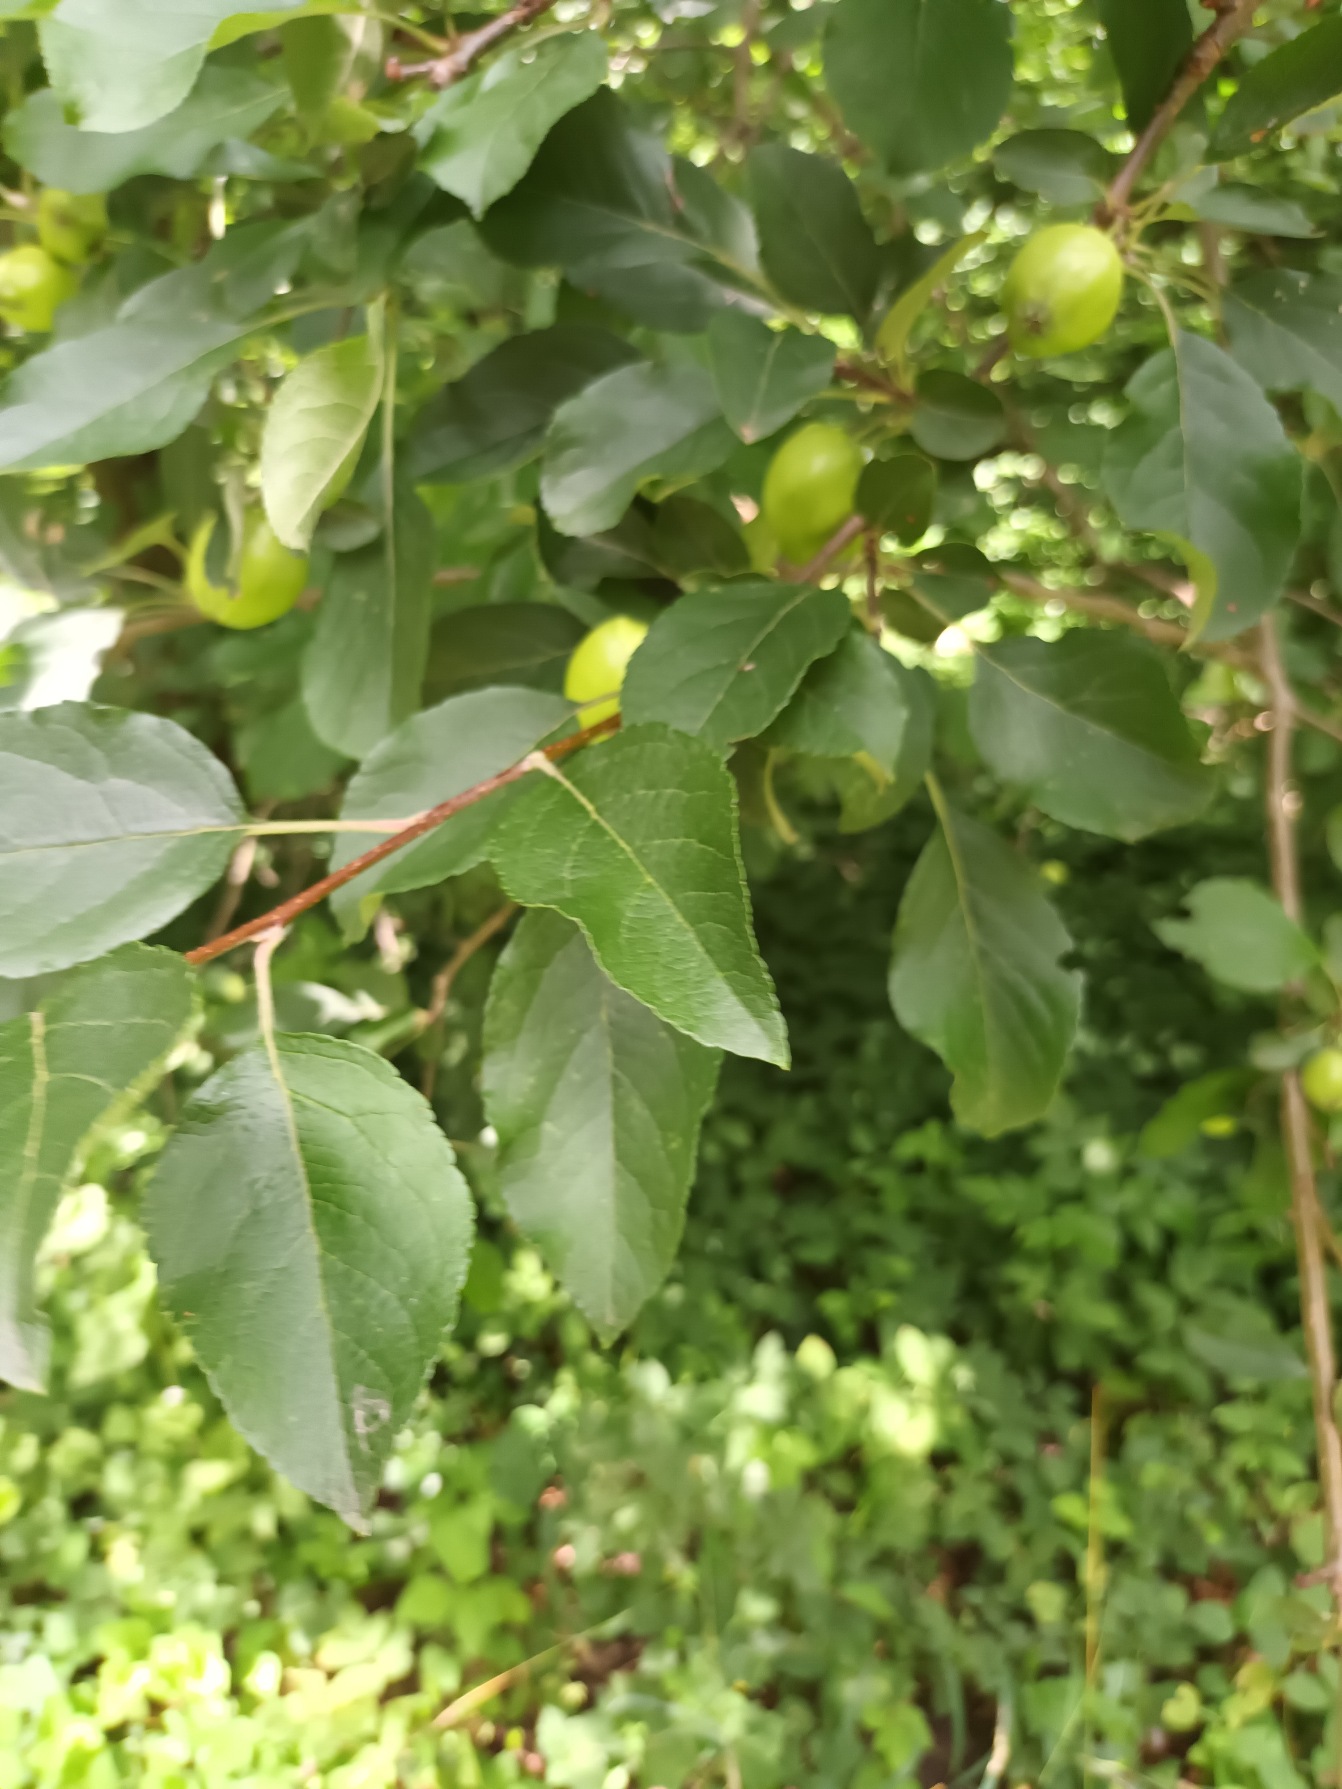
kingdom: Plantae
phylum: Tracheophyta
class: Magnoliopsida
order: Rosales
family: Rosaceae
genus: Malus
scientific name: Malus domestica
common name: Sød-æble
